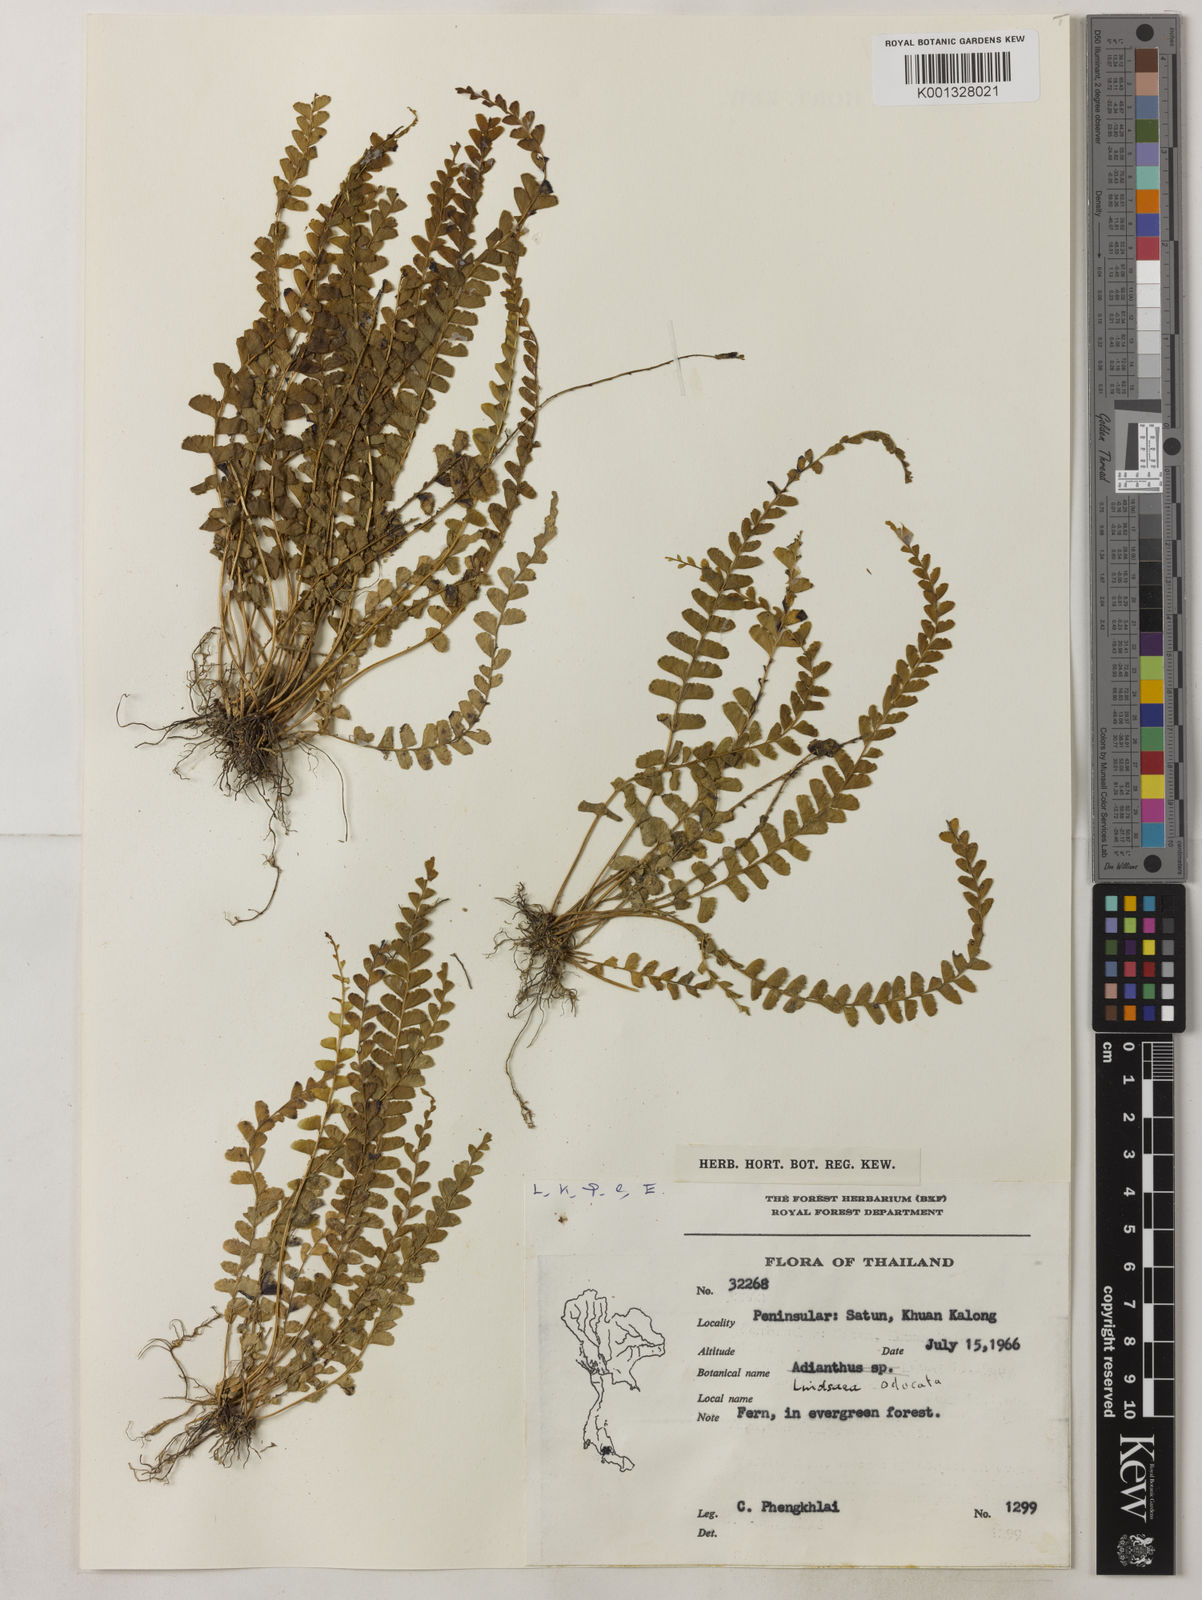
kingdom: Plantae
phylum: Tracheophyta
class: Polypodiopsida
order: Polypodiales
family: Lindsaeaceae
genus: Osmolindsaea
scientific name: Osmolindsaea odorata
